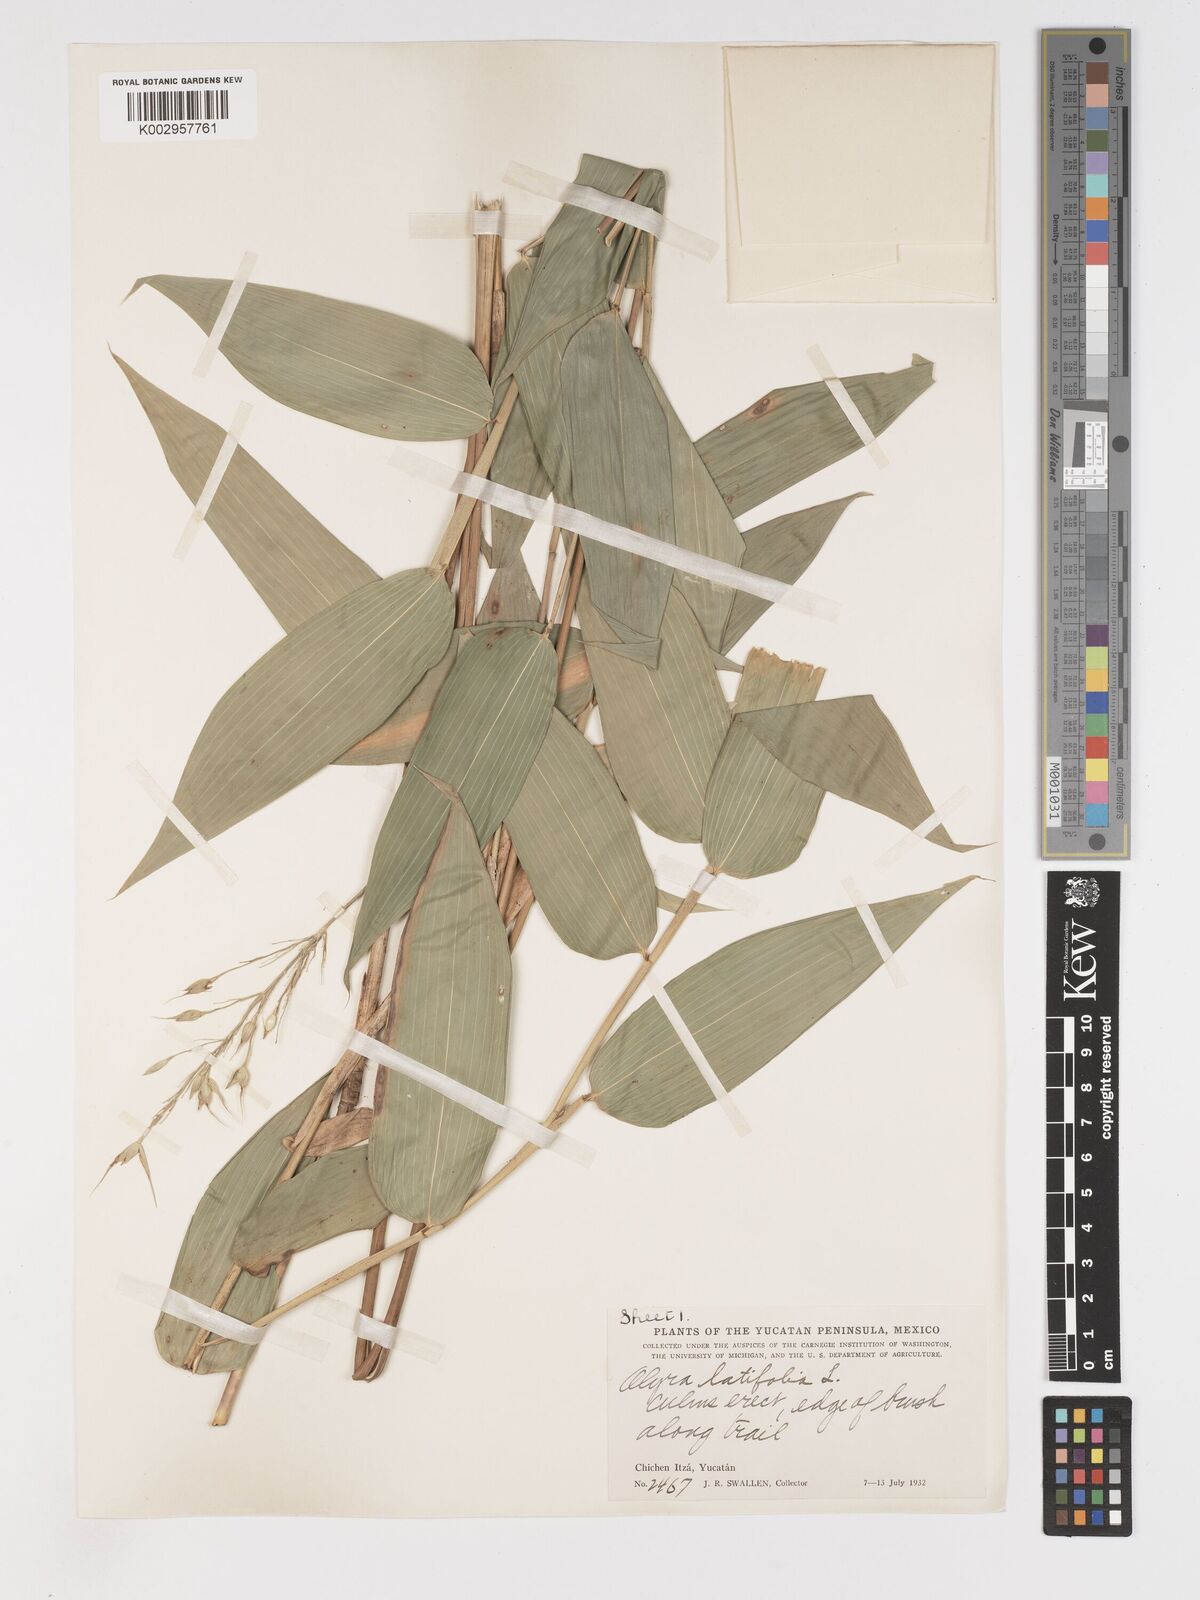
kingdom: Plantae
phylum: Tracheophyta
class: Liliopsida
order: Poales
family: Poaceae
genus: Olyra
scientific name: Olyra latifolia
